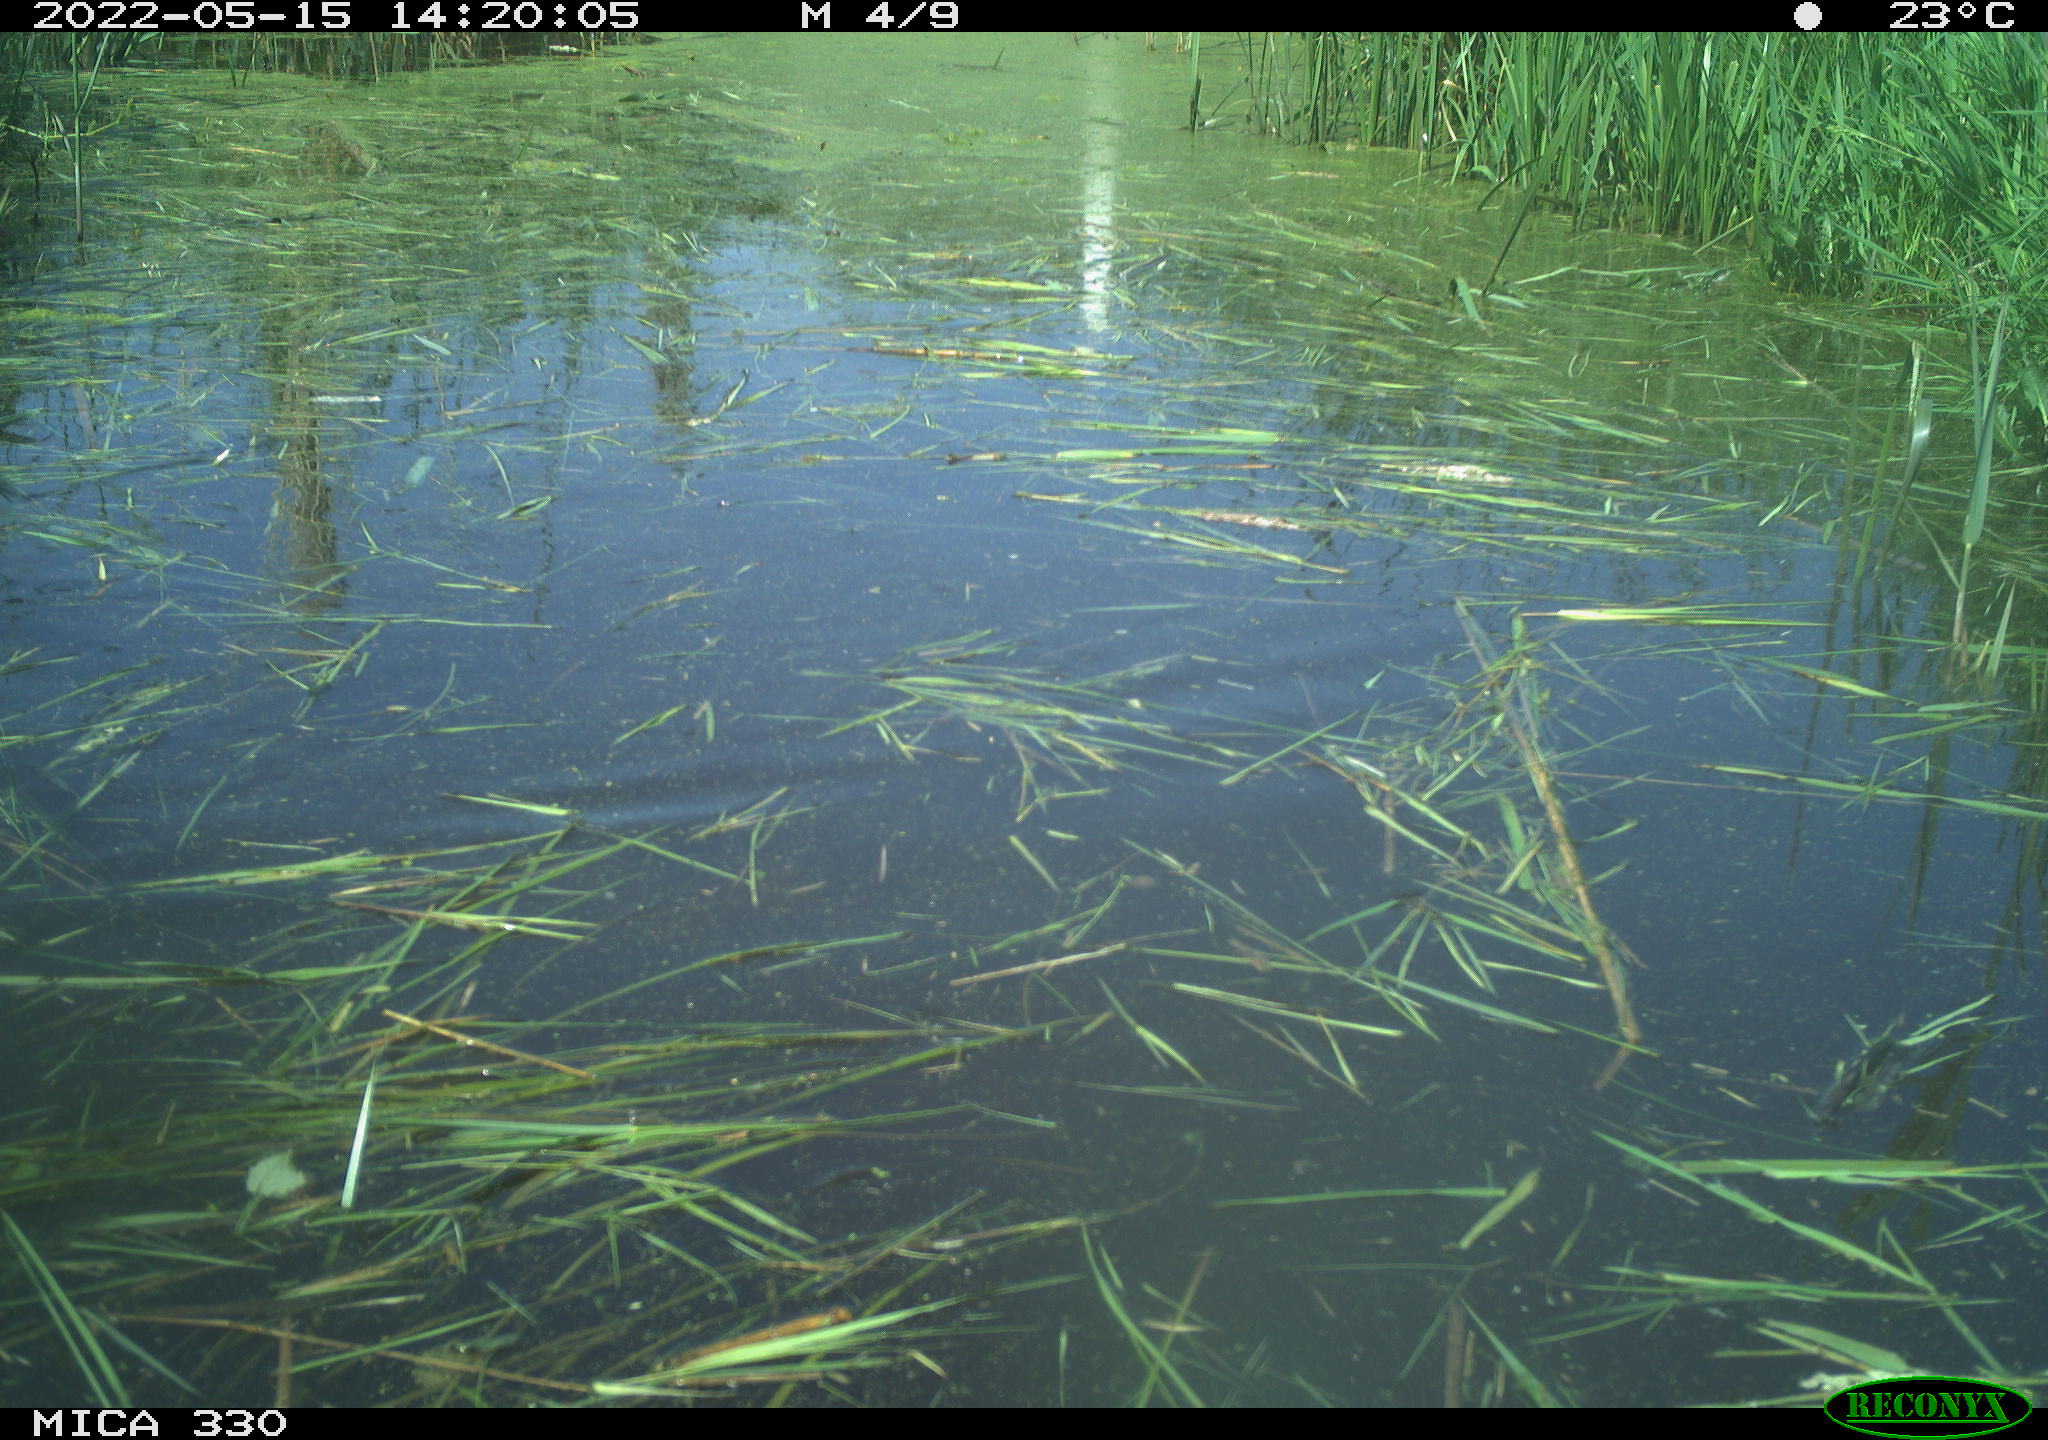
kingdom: Animalia
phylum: Chordata
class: Aves
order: Anseriformes
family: Anatidae
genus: Anas
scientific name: Anas platyrhynchos
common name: Mallard
